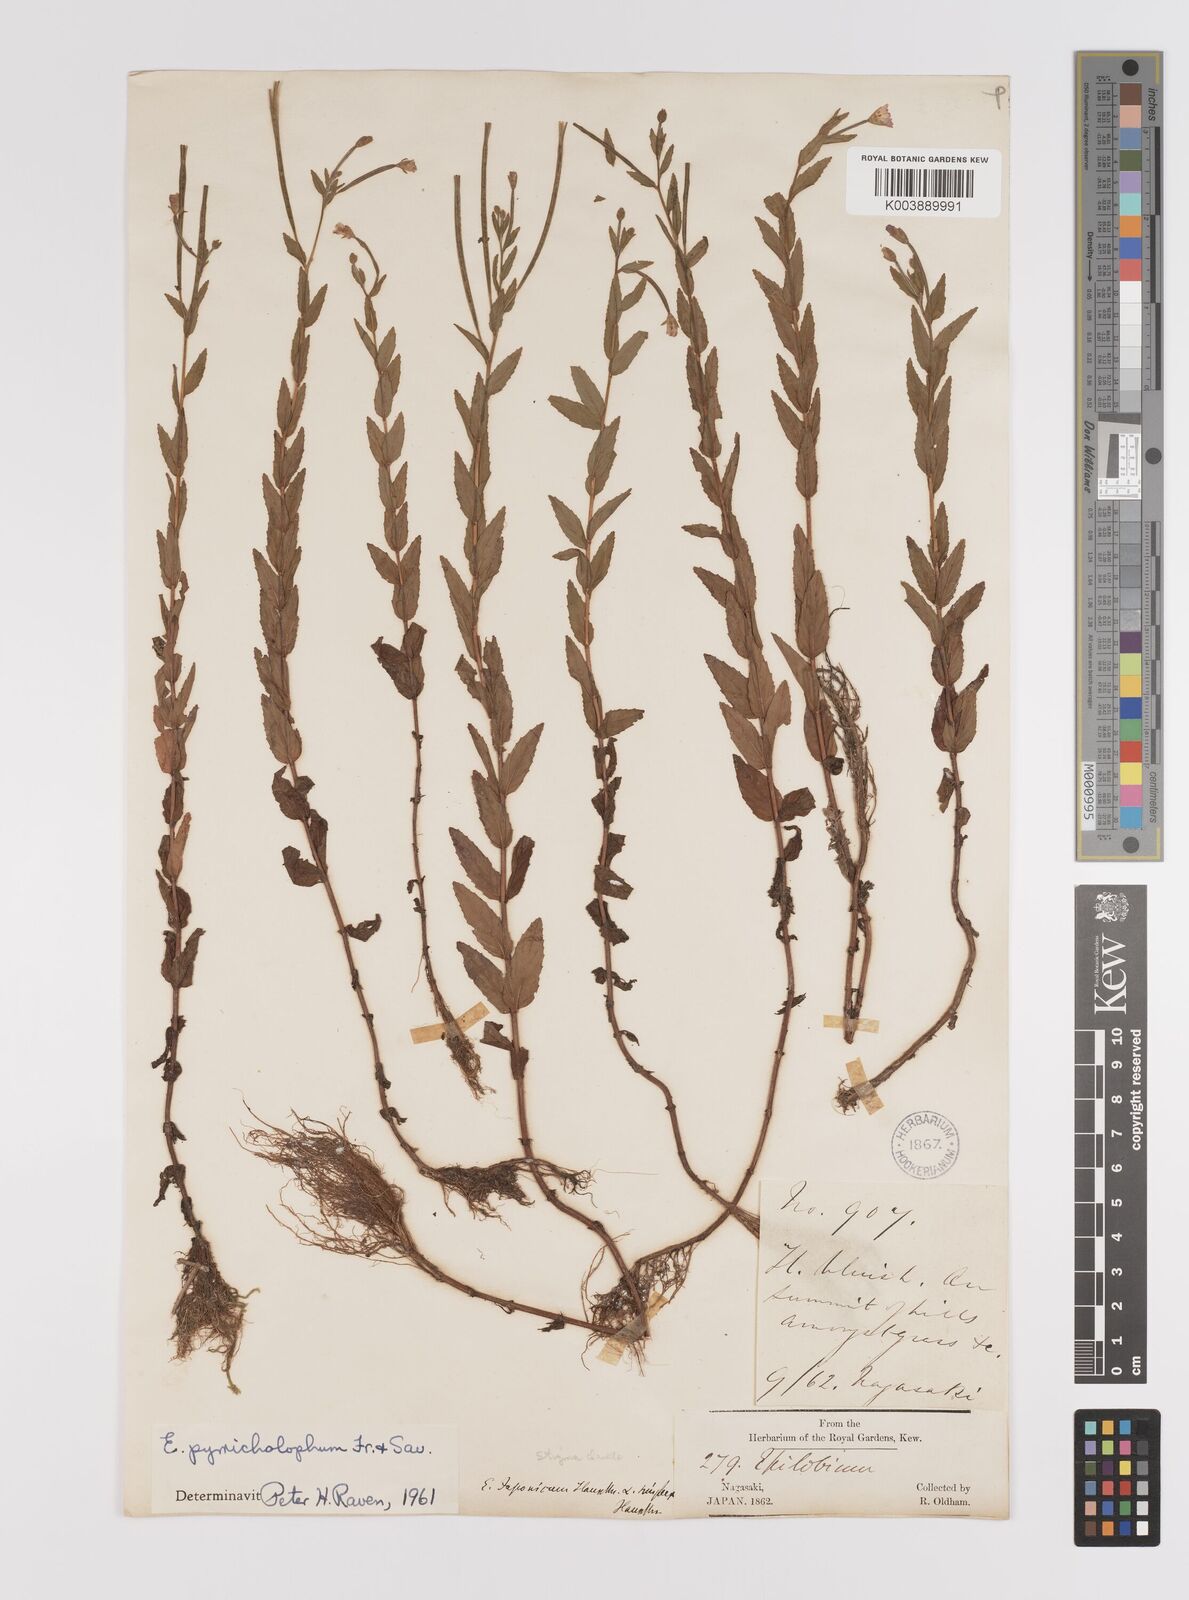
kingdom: Plantae
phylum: Tracheophyta
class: Magnoliopsida
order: Myrtales
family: Onagraceae
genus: Epilobium
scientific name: Epilobium pyrricholophum
